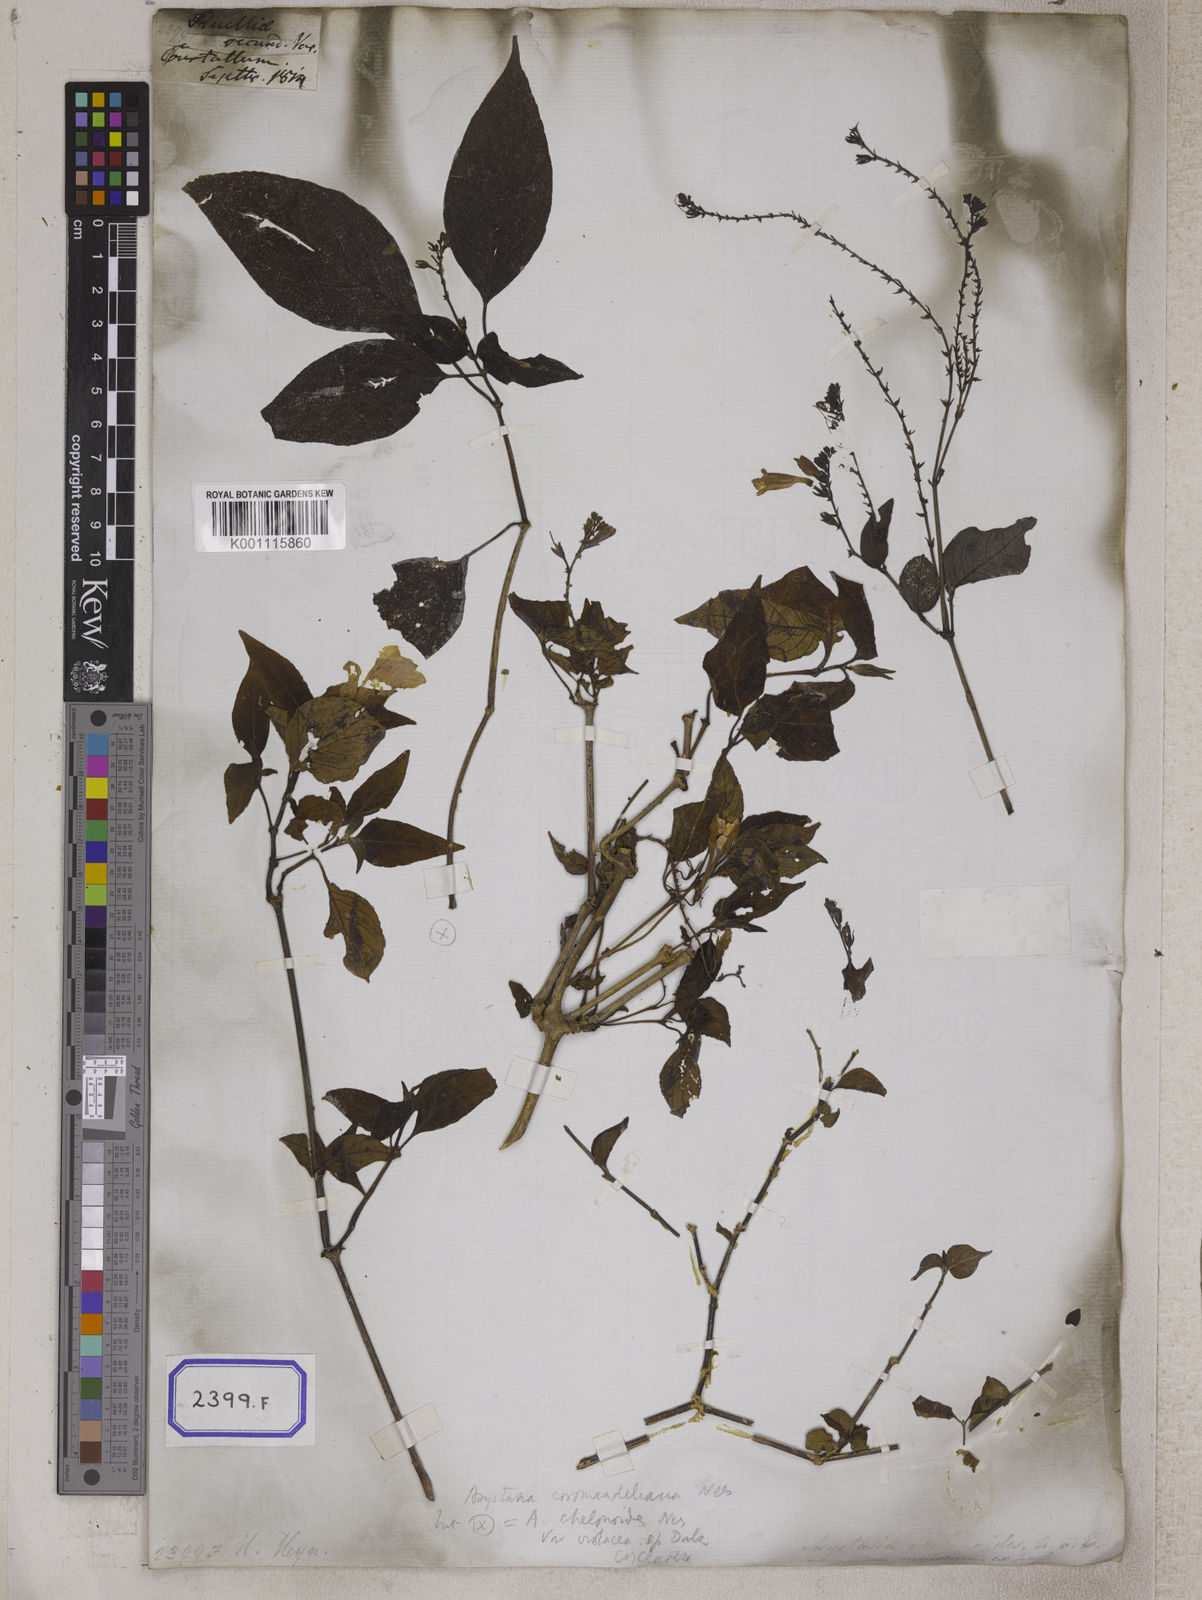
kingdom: Plantae
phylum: Tracheophyta
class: Magnoliopsida
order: Lamiales
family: Acanthaceae
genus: Asystasia
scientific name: Asystasia gangetica
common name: Chinese violet
